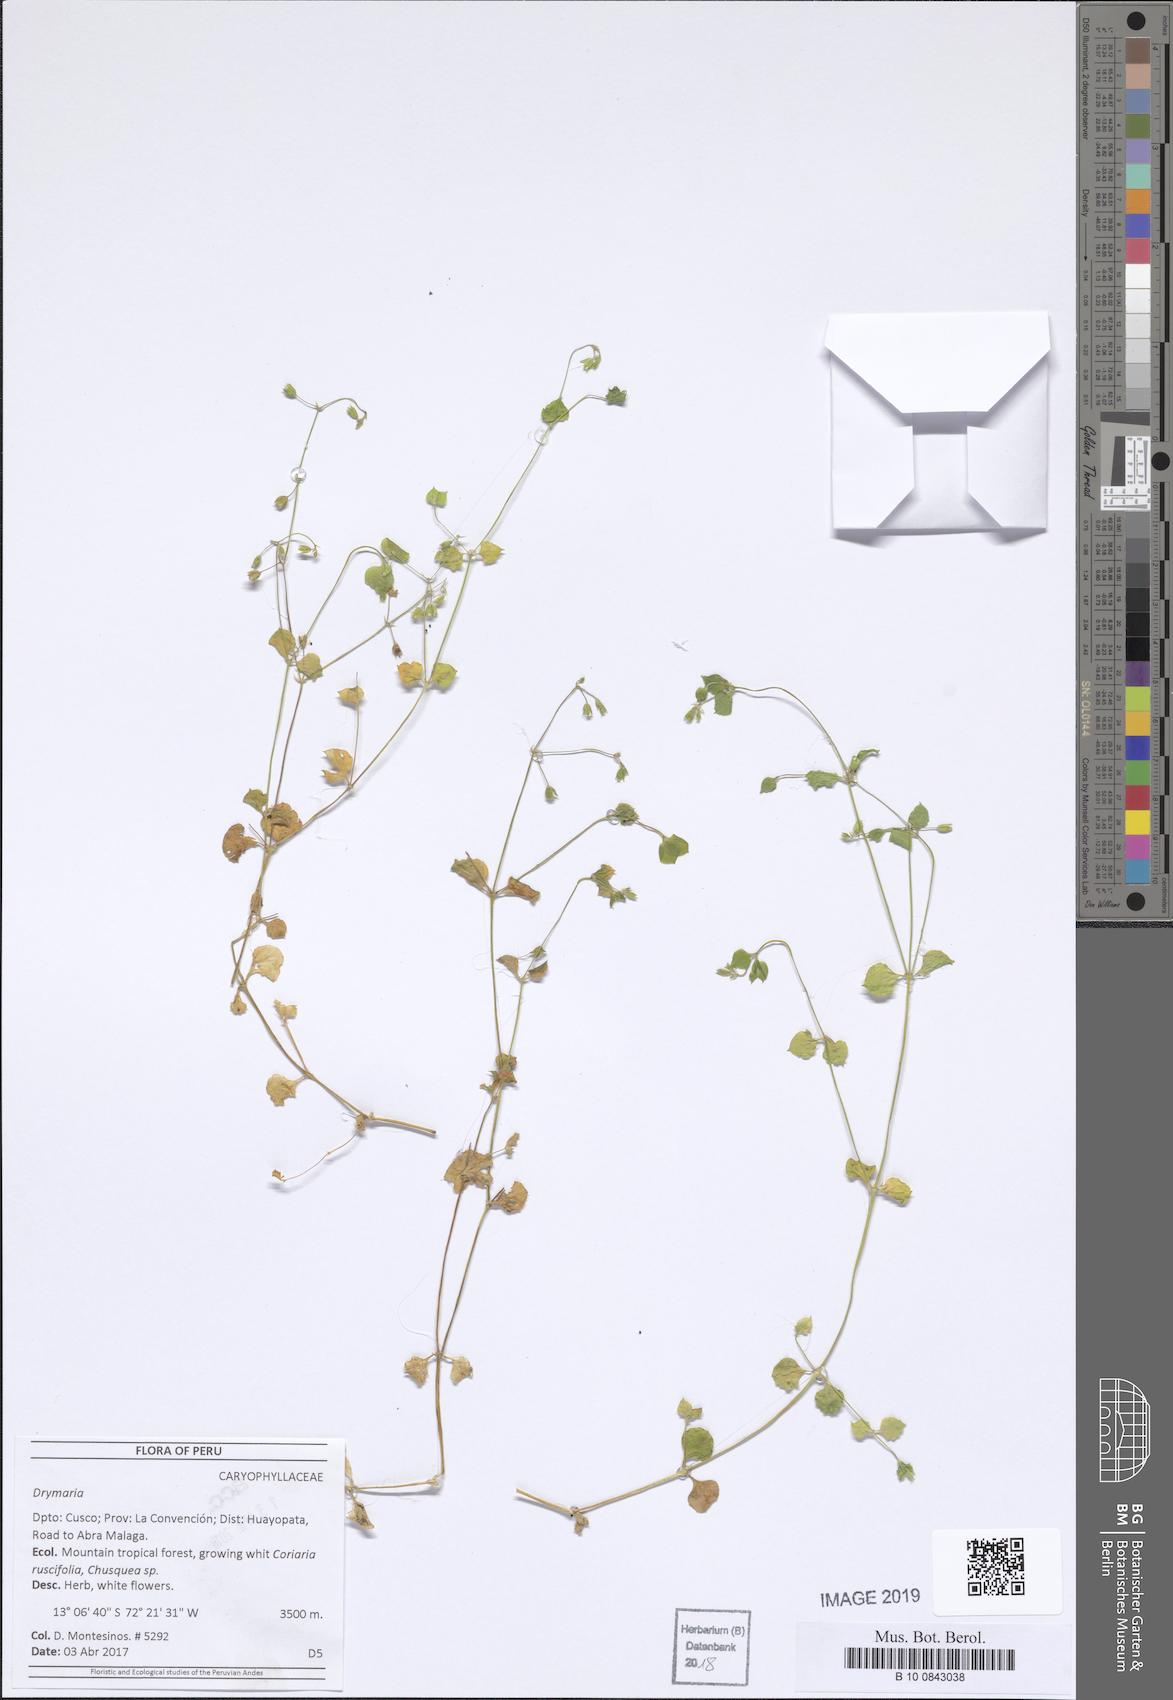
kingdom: Plantae
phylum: Tracheophyta
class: Magnoliopsida
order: Caryophyllales
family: Caryophyllaceae
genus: Drymaria
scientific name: Drymaria
